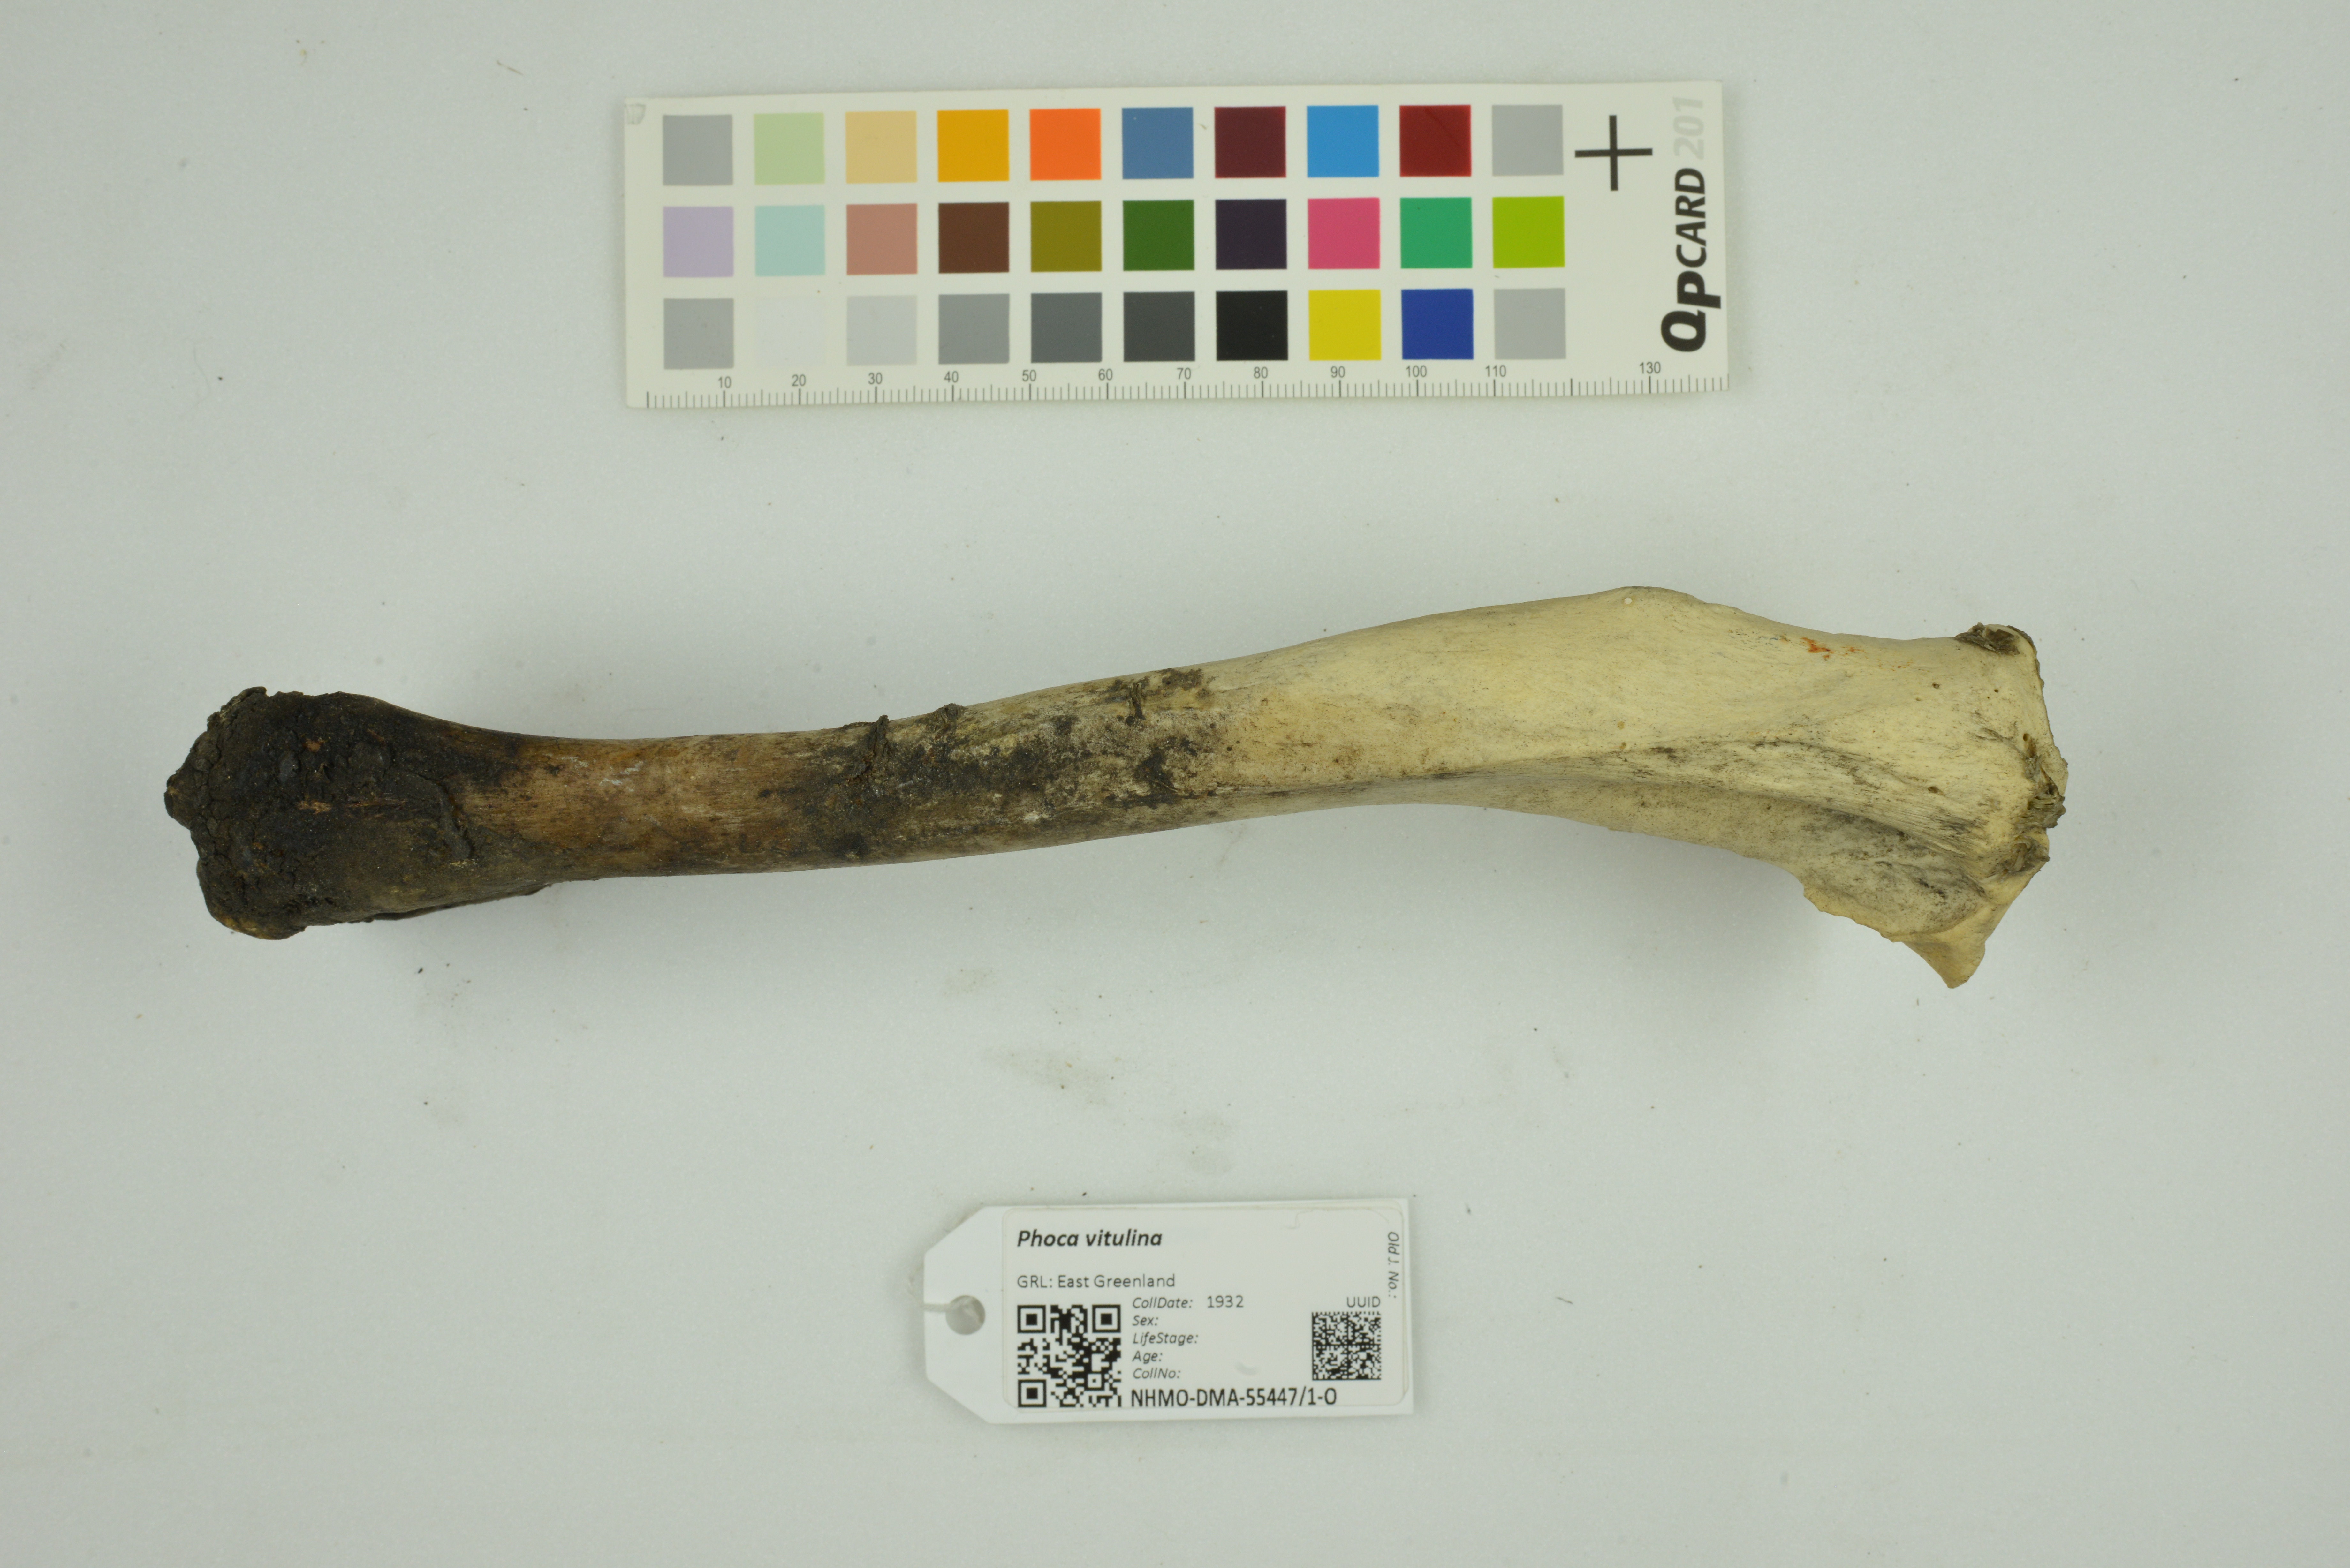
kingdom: Animalia
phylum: Chordata
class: Mammalia
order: Carnivora
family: Phocidae
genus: Phoca
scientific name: Phoca vitulina
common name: Harbor seal
